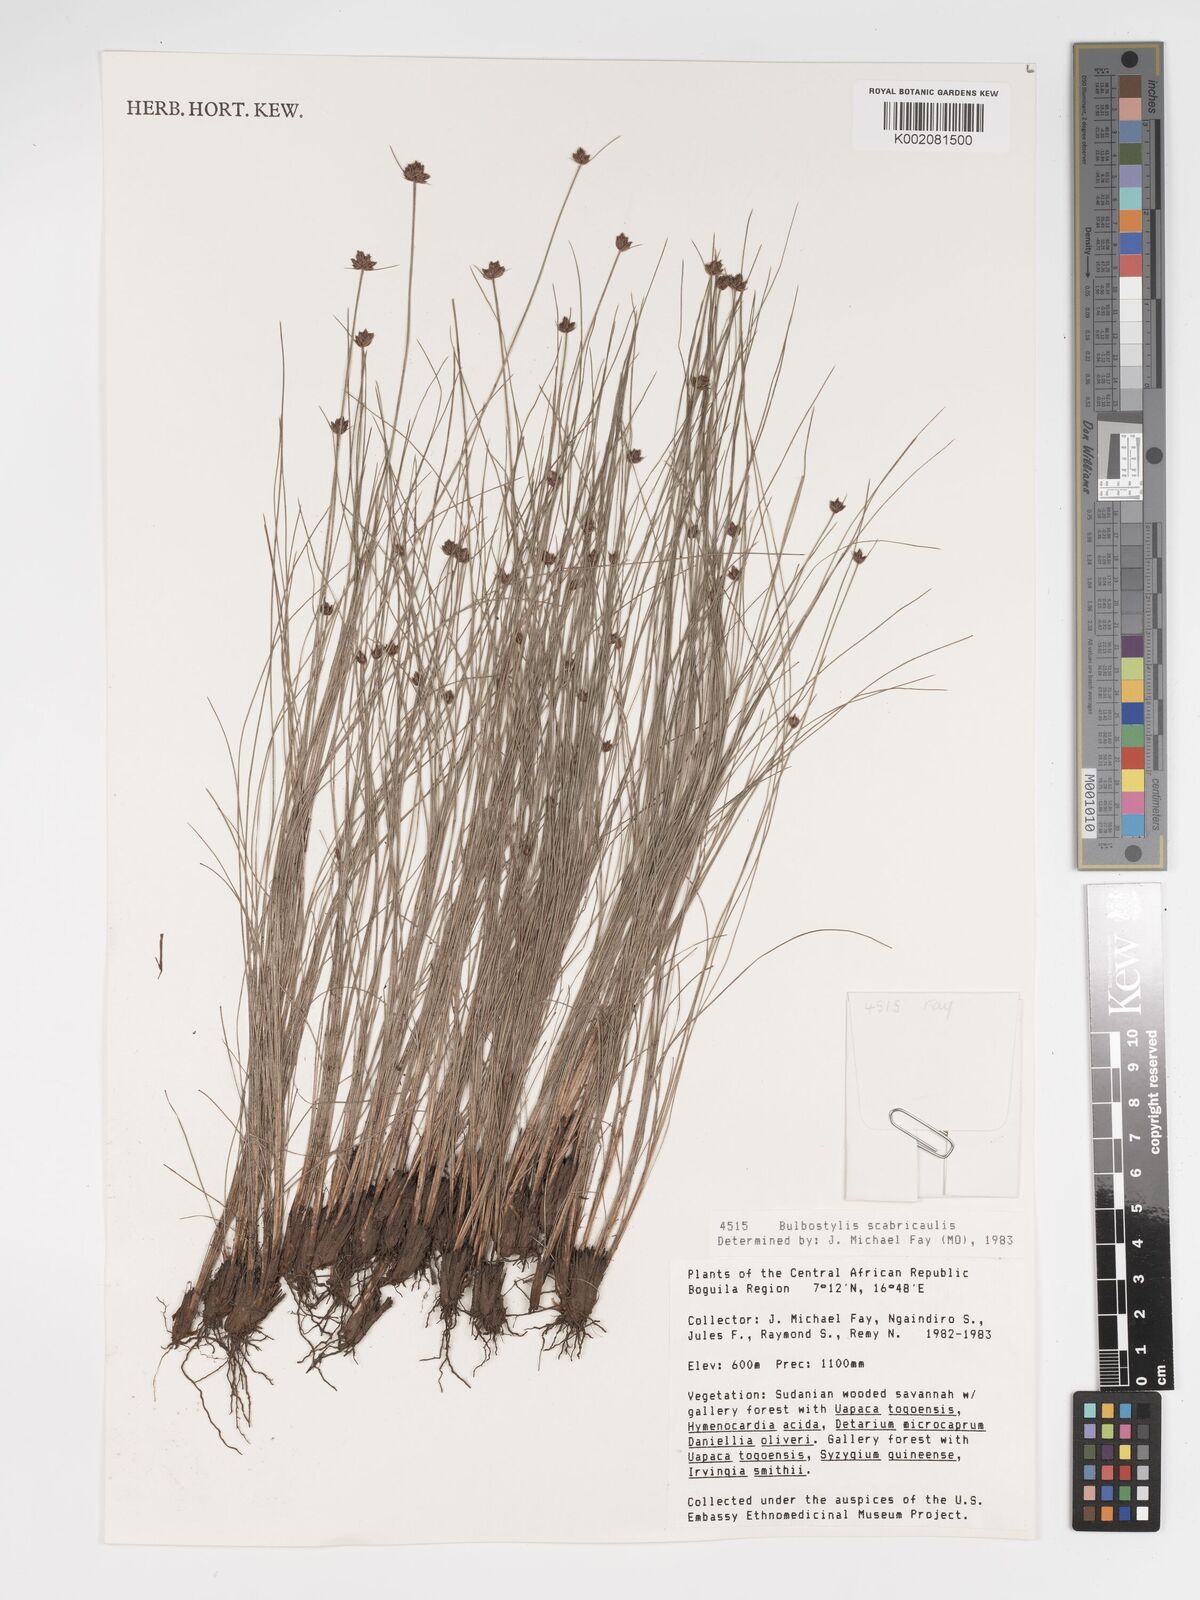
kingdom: Plantae
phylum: Tracheophyta
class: Liliopsida
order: Poales
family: Cyperaceae
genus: Bulbostylis
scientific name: Bulbostylis scabricaulis
